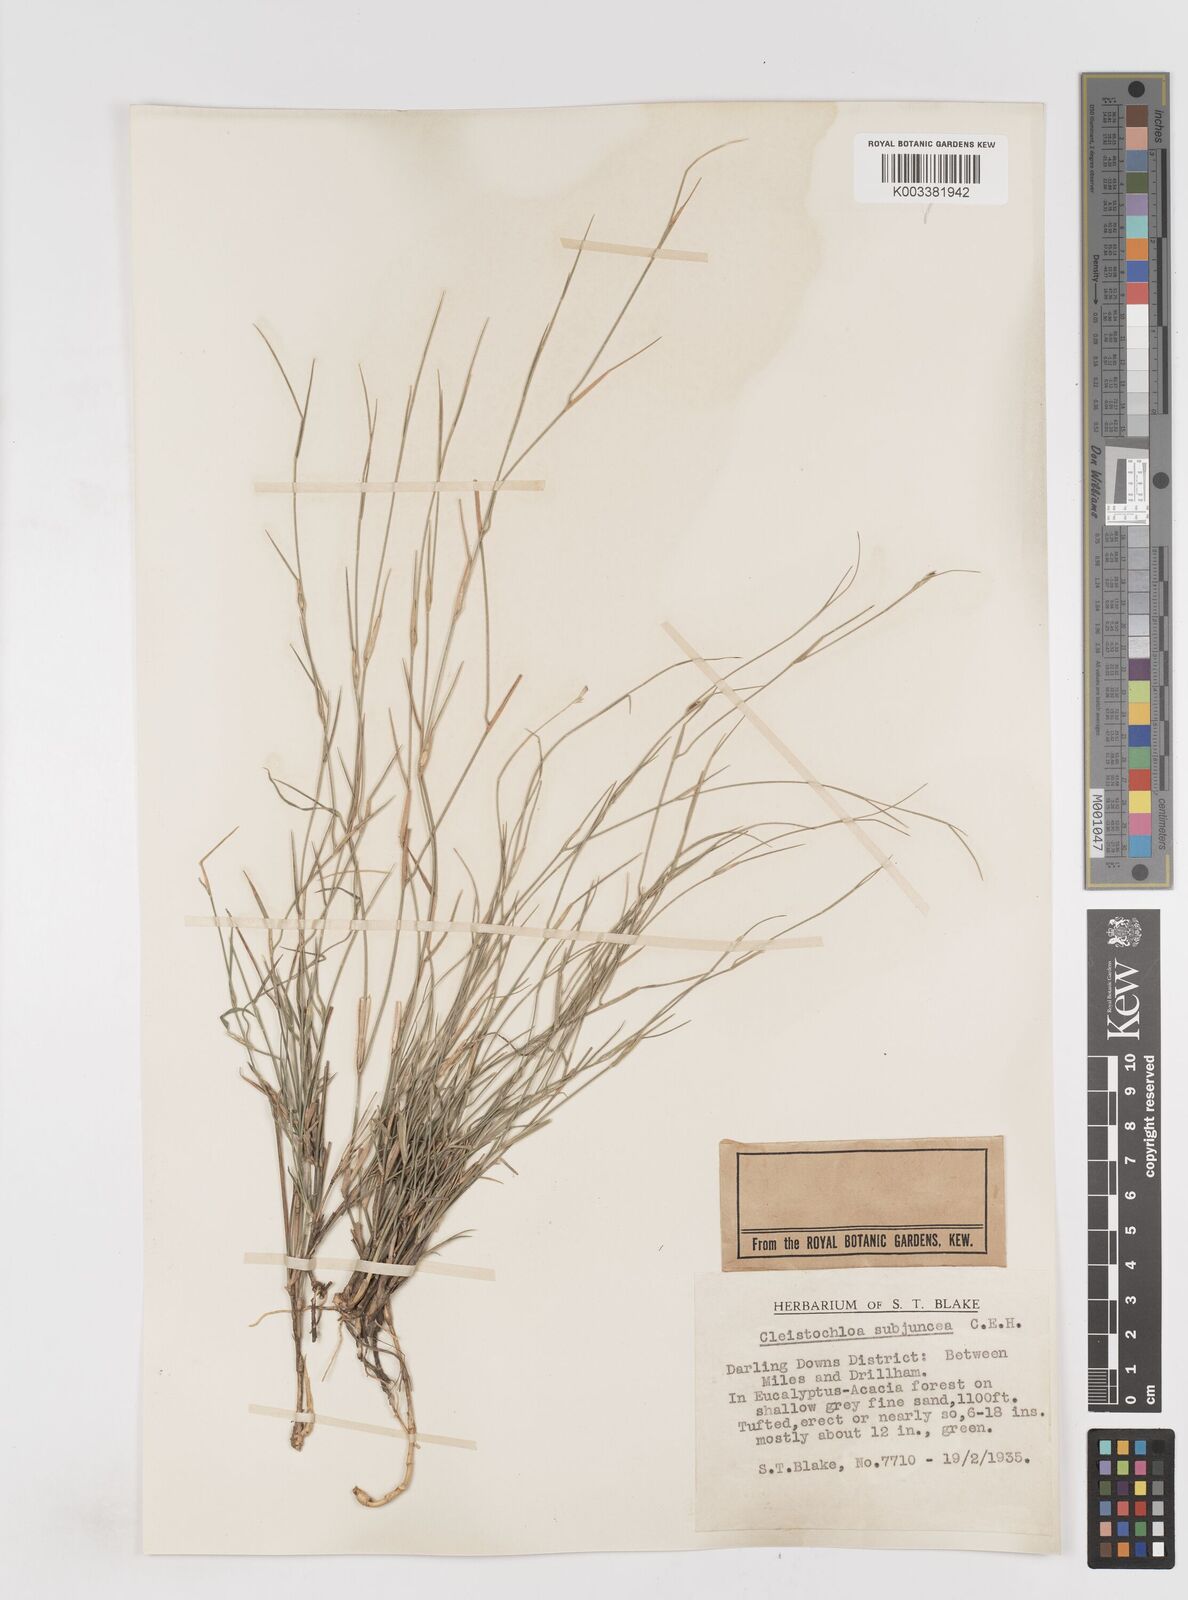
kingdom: Plantae
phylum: Tracheophyta
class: Liliopsida
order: Poales
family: Poaceae
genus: Cleistochloa
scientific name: Cleistochloa subjuncea
